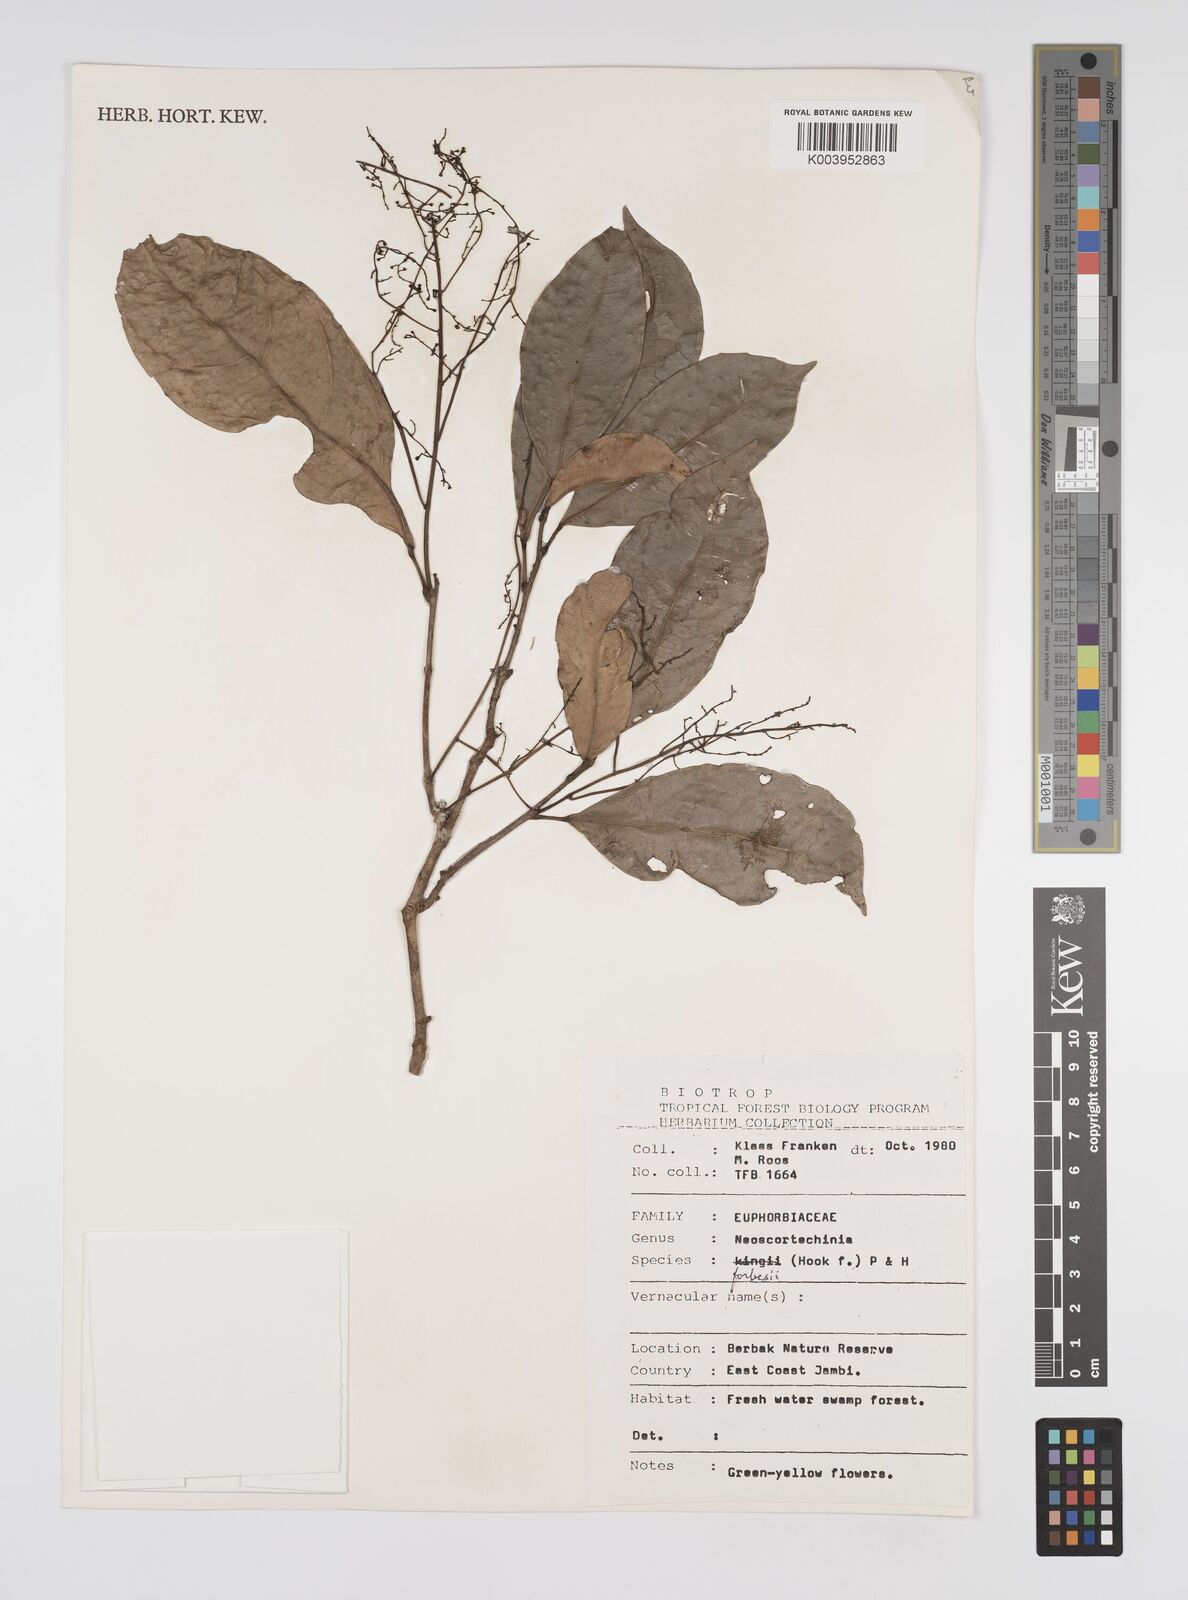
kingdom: Plantae
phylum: Tracheophyta
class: Magnoliopsida
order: Malpighiales
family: Euphorbiaceae
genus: Neoscortechinia
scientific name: Neoscortechinia philippinensis
